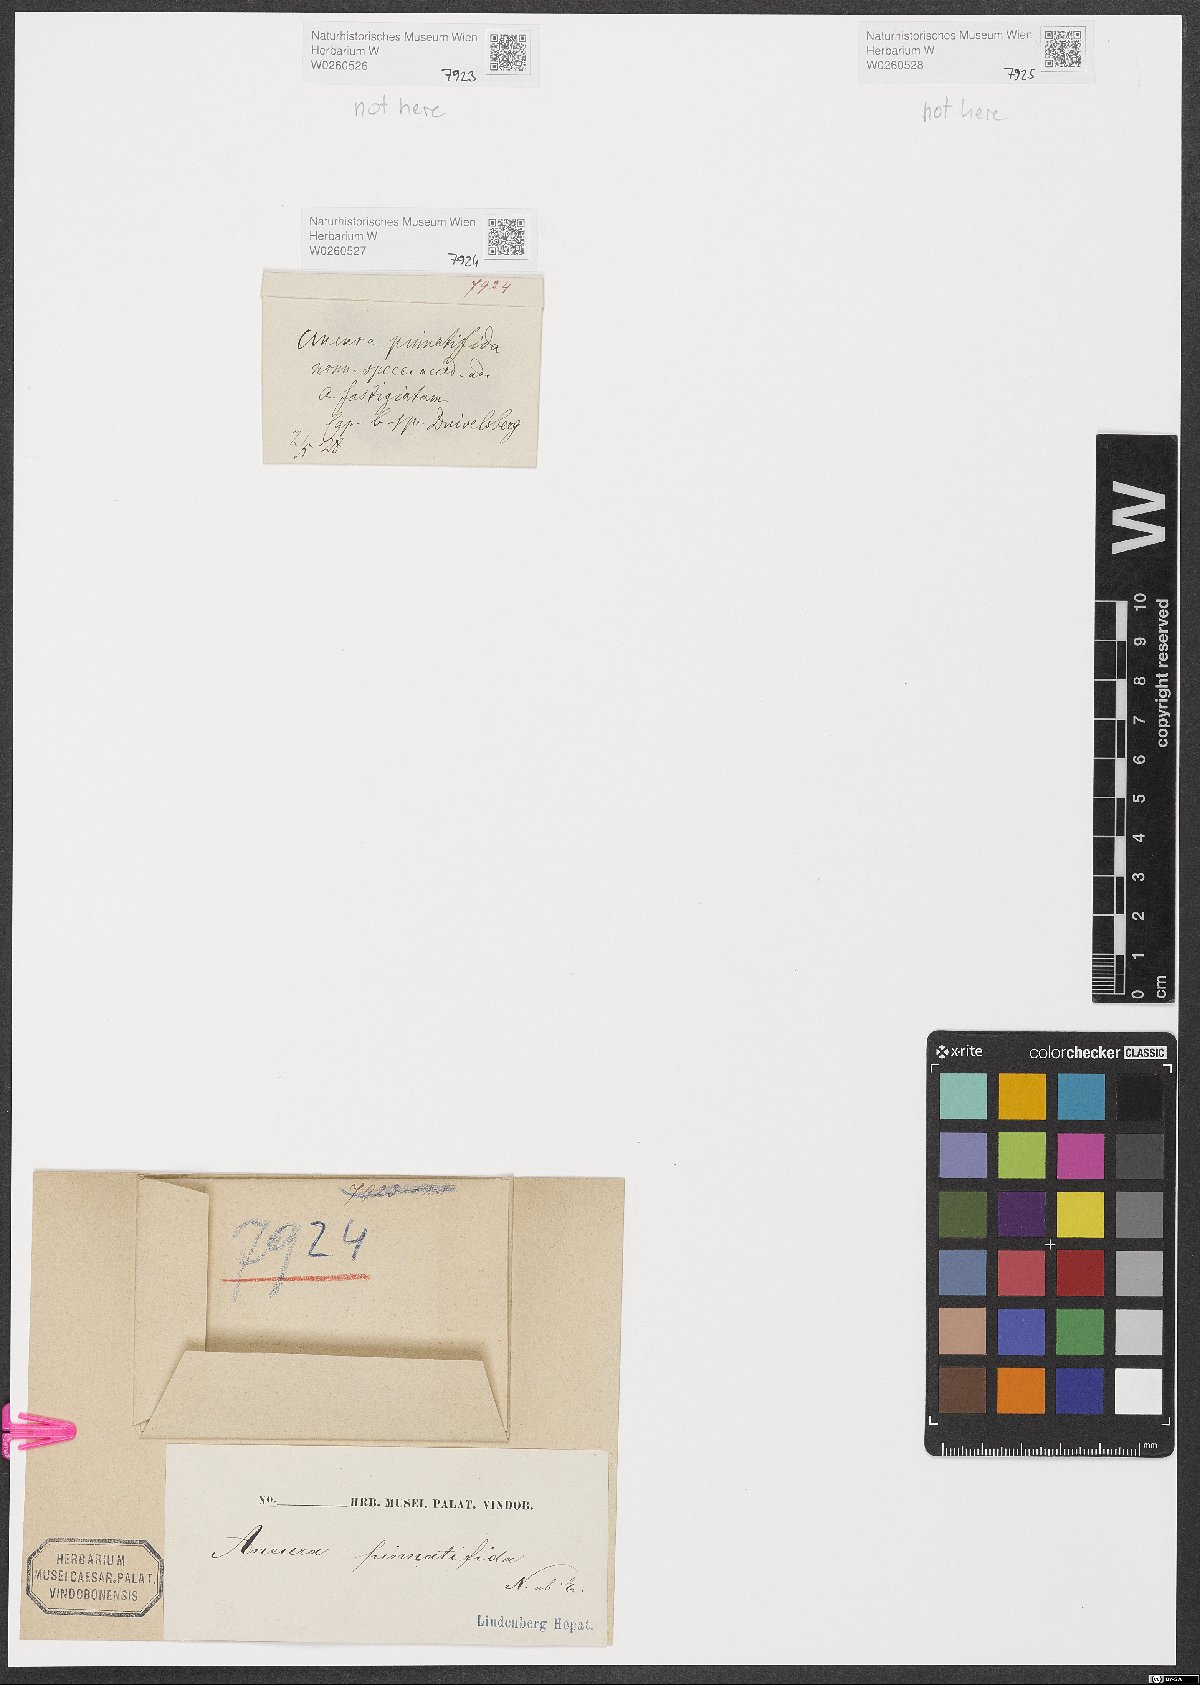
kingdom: Plantae
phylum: Marchantiophyta
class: Jungermanniopsida
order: Metzgeriales
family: Aneuraceae
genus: Riccardia
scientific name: Riccardia chamedryfolia
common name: Jagged germanderwort
